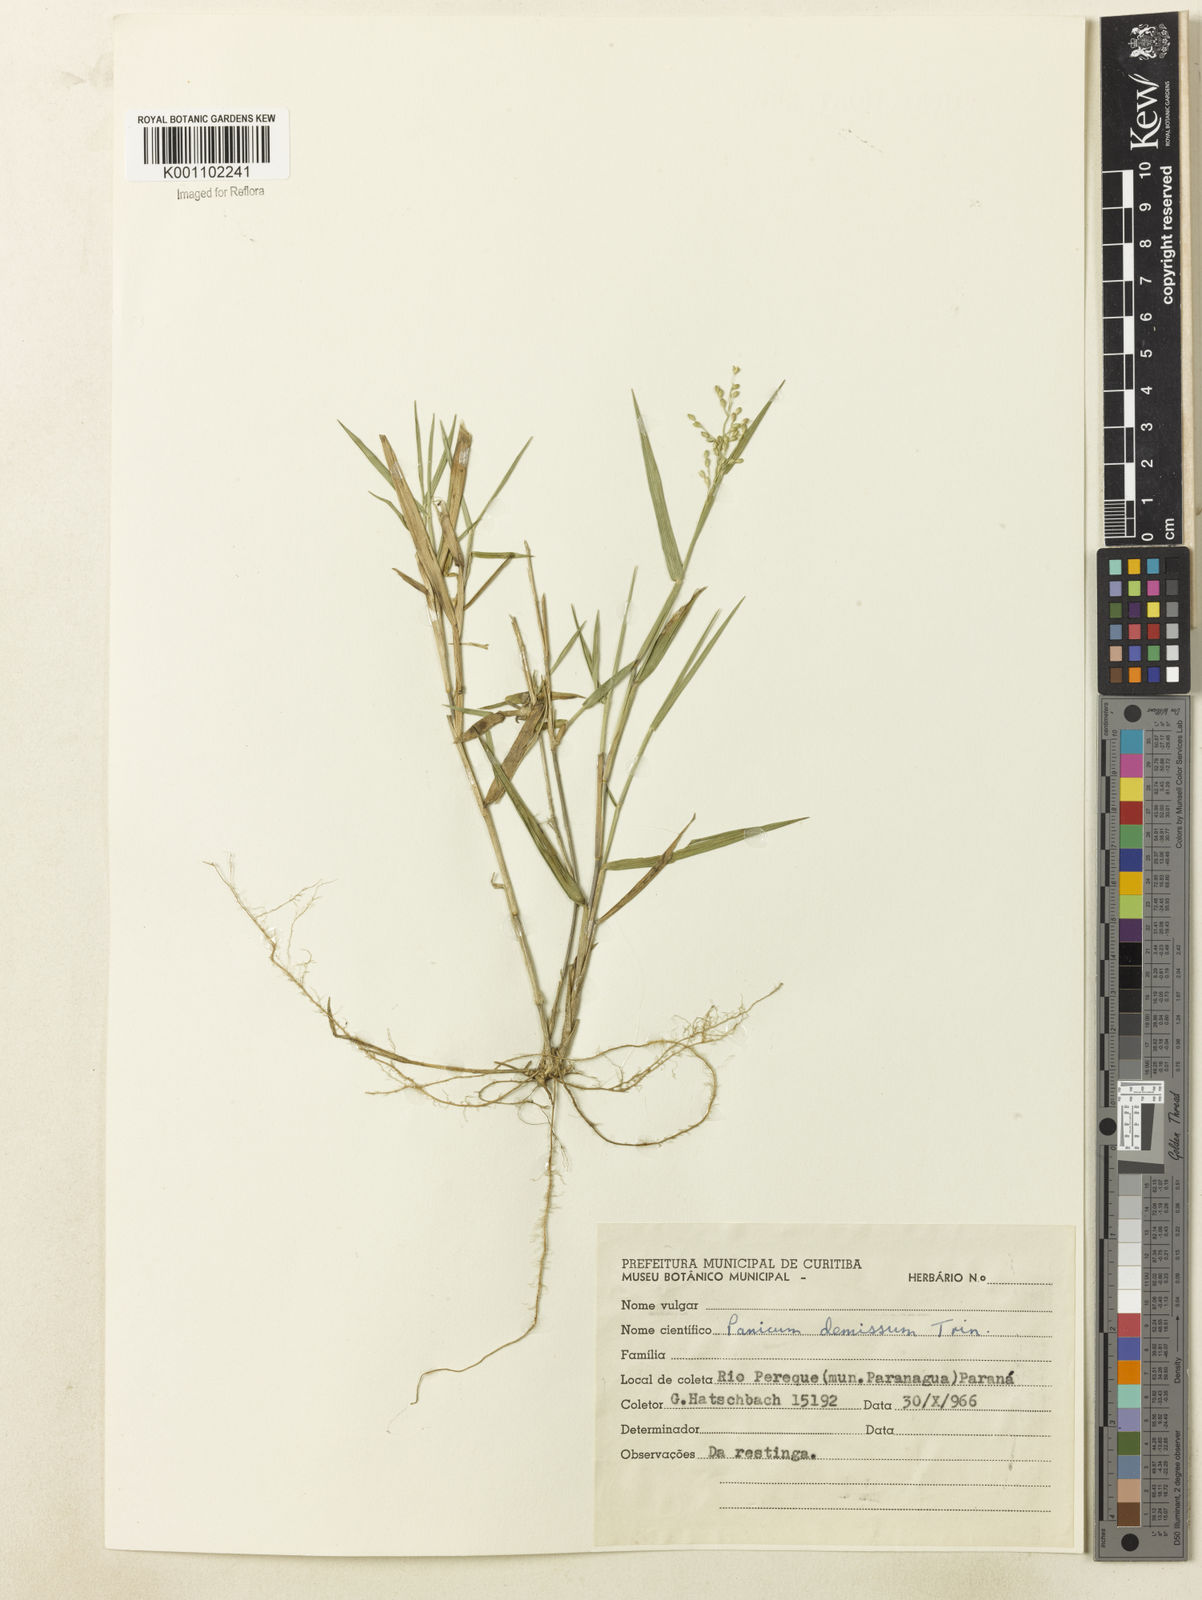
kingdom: Plantae
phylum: Tracheophyta
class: Liliopsida
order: Poales
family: Poaceae
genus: Dichanthelium
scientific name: Dichanthelium sabulorum
